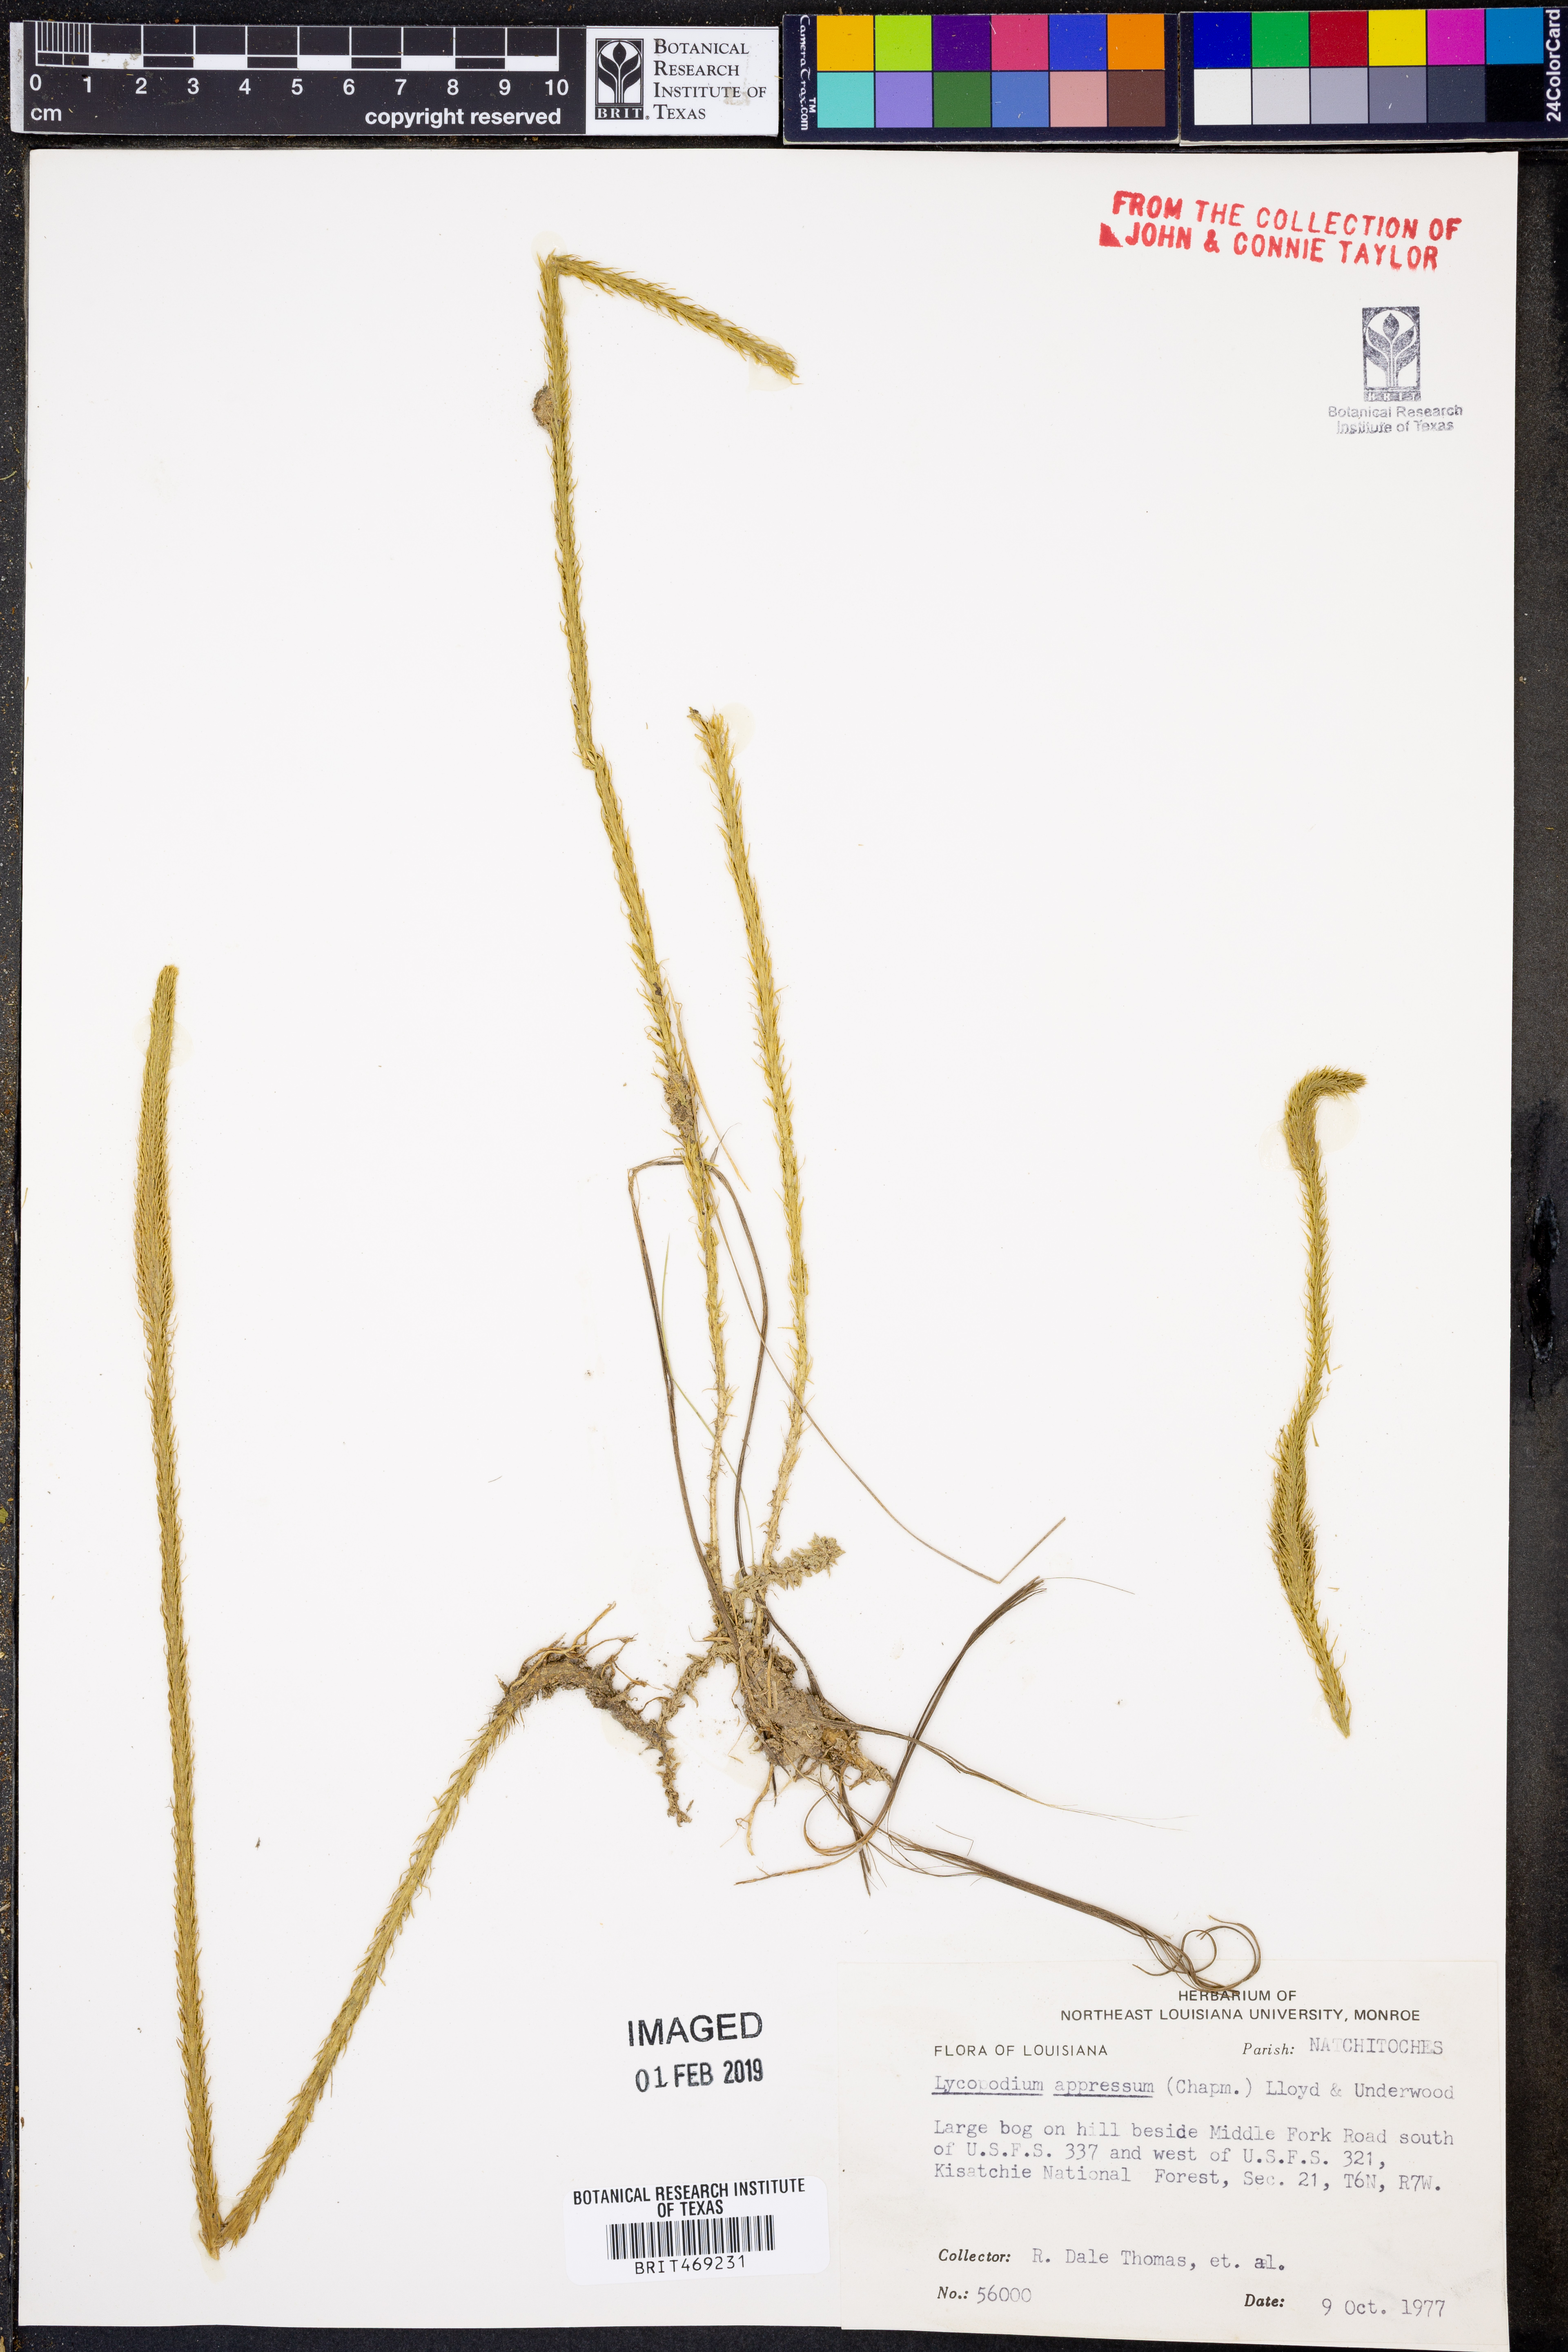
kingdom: Plantae
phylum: Tracheophyta
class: Lycopodiopsida
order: Lycopodiales
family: Lycopodiaceae
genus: Lycopodiella
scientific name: Lycopodiella appressa
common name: Appressed bog clubmoss
